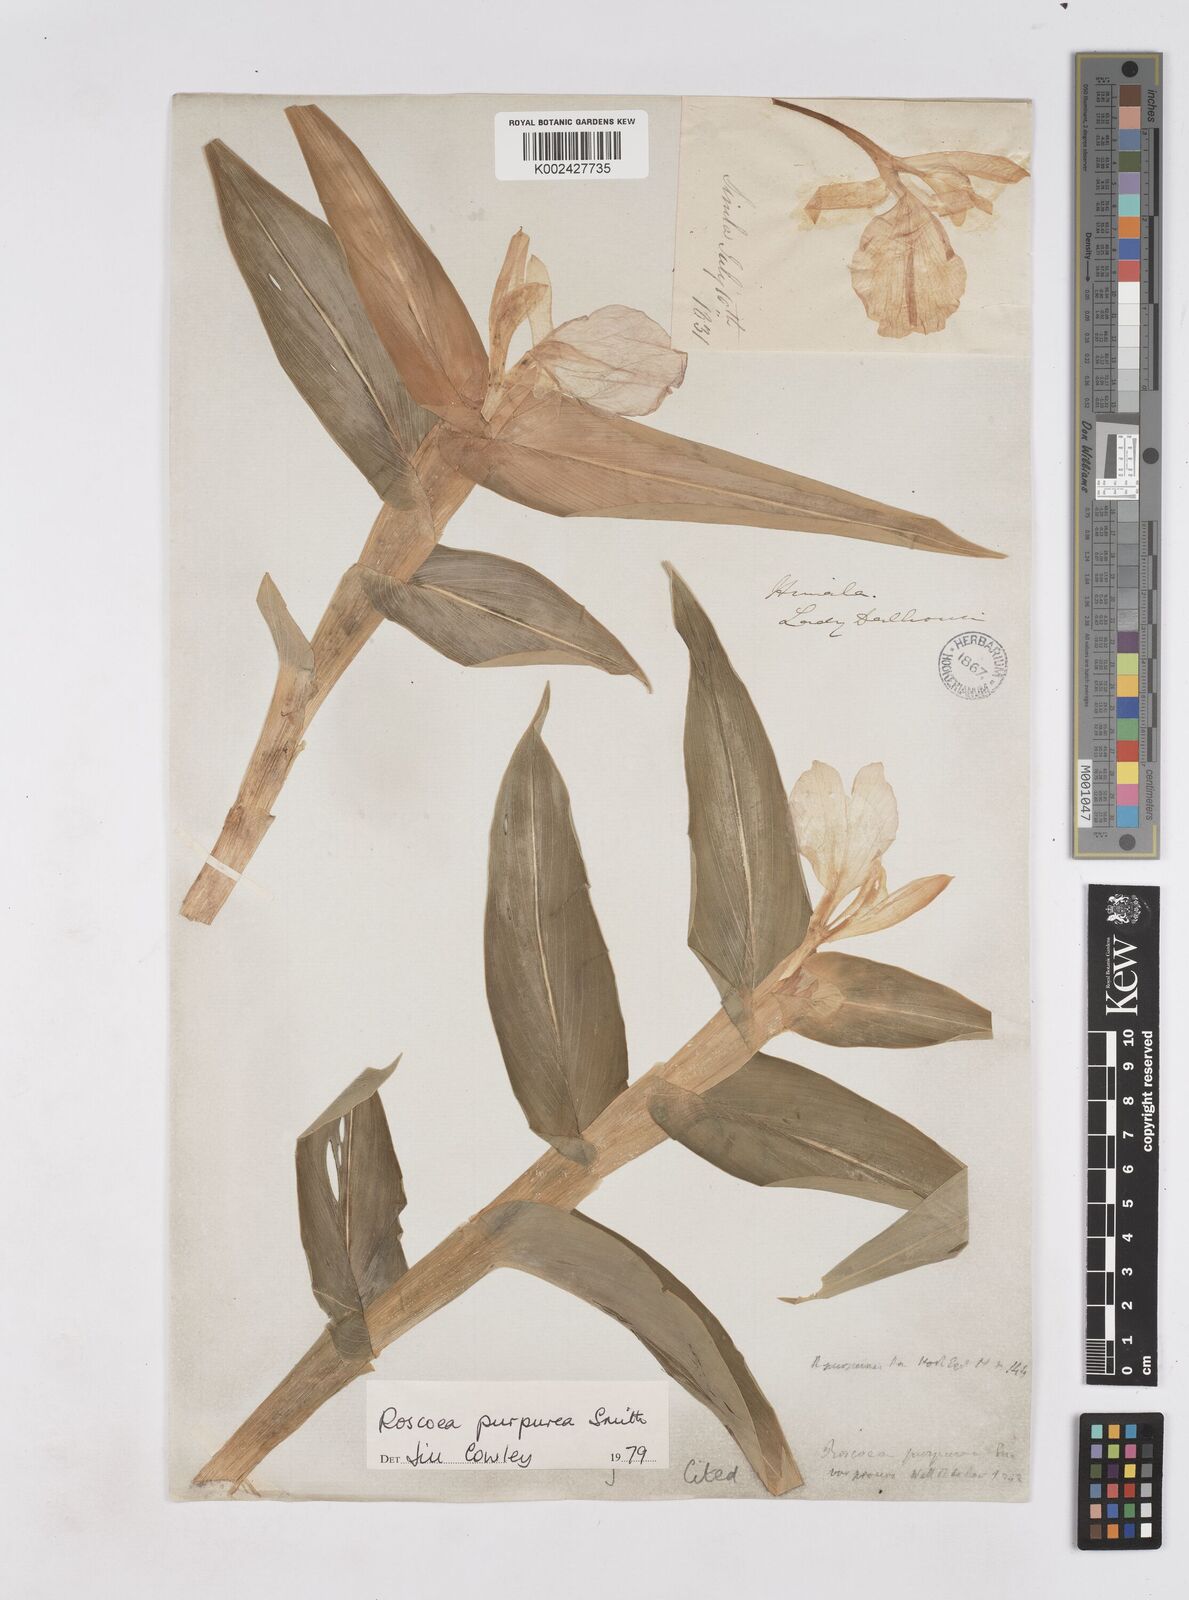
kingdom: Plantae
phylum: Tracheophyta
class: Liliopsida
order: Zingiberales
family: Zingiberaceae
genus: Roscoea
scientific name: Roscoea purpurea
